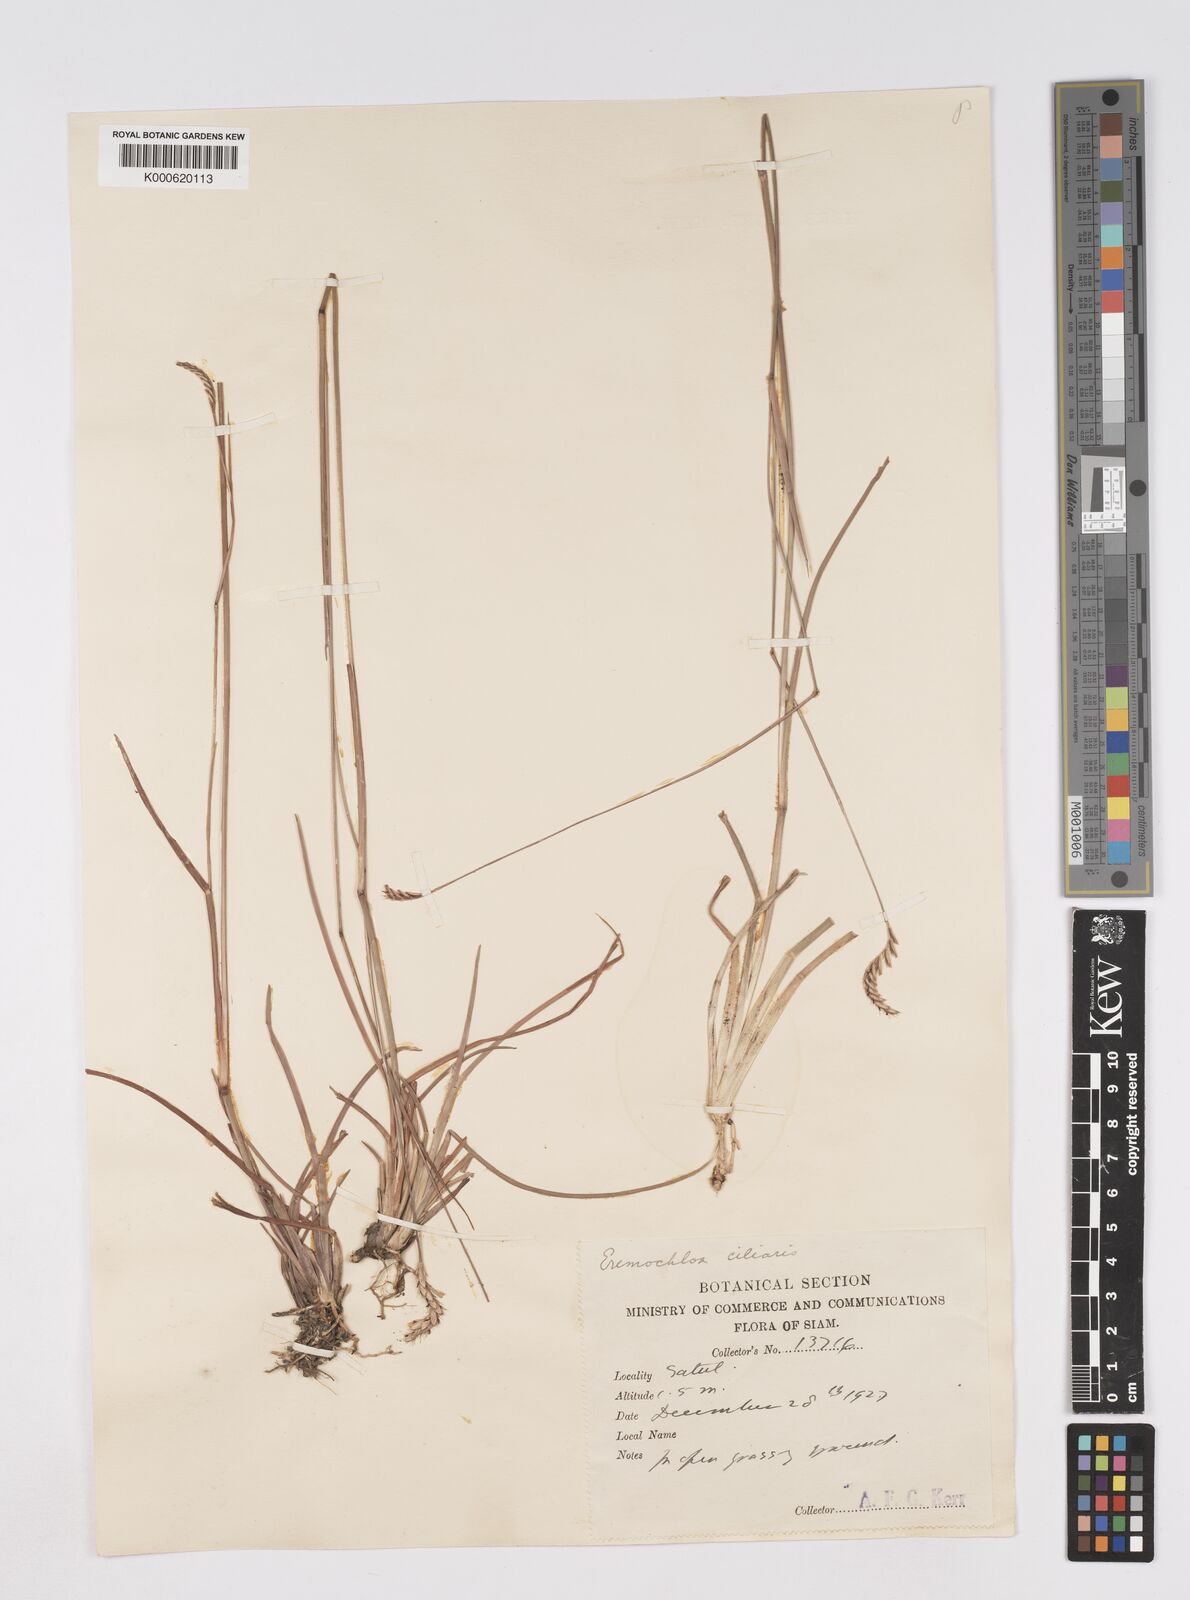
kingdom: Plantae
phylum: Tracheophyta
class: Liliopsida
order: Poales
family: Poaceae
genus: Eremochloa
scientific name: Eremochloa ciliaris
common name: Fringed centipede grass
